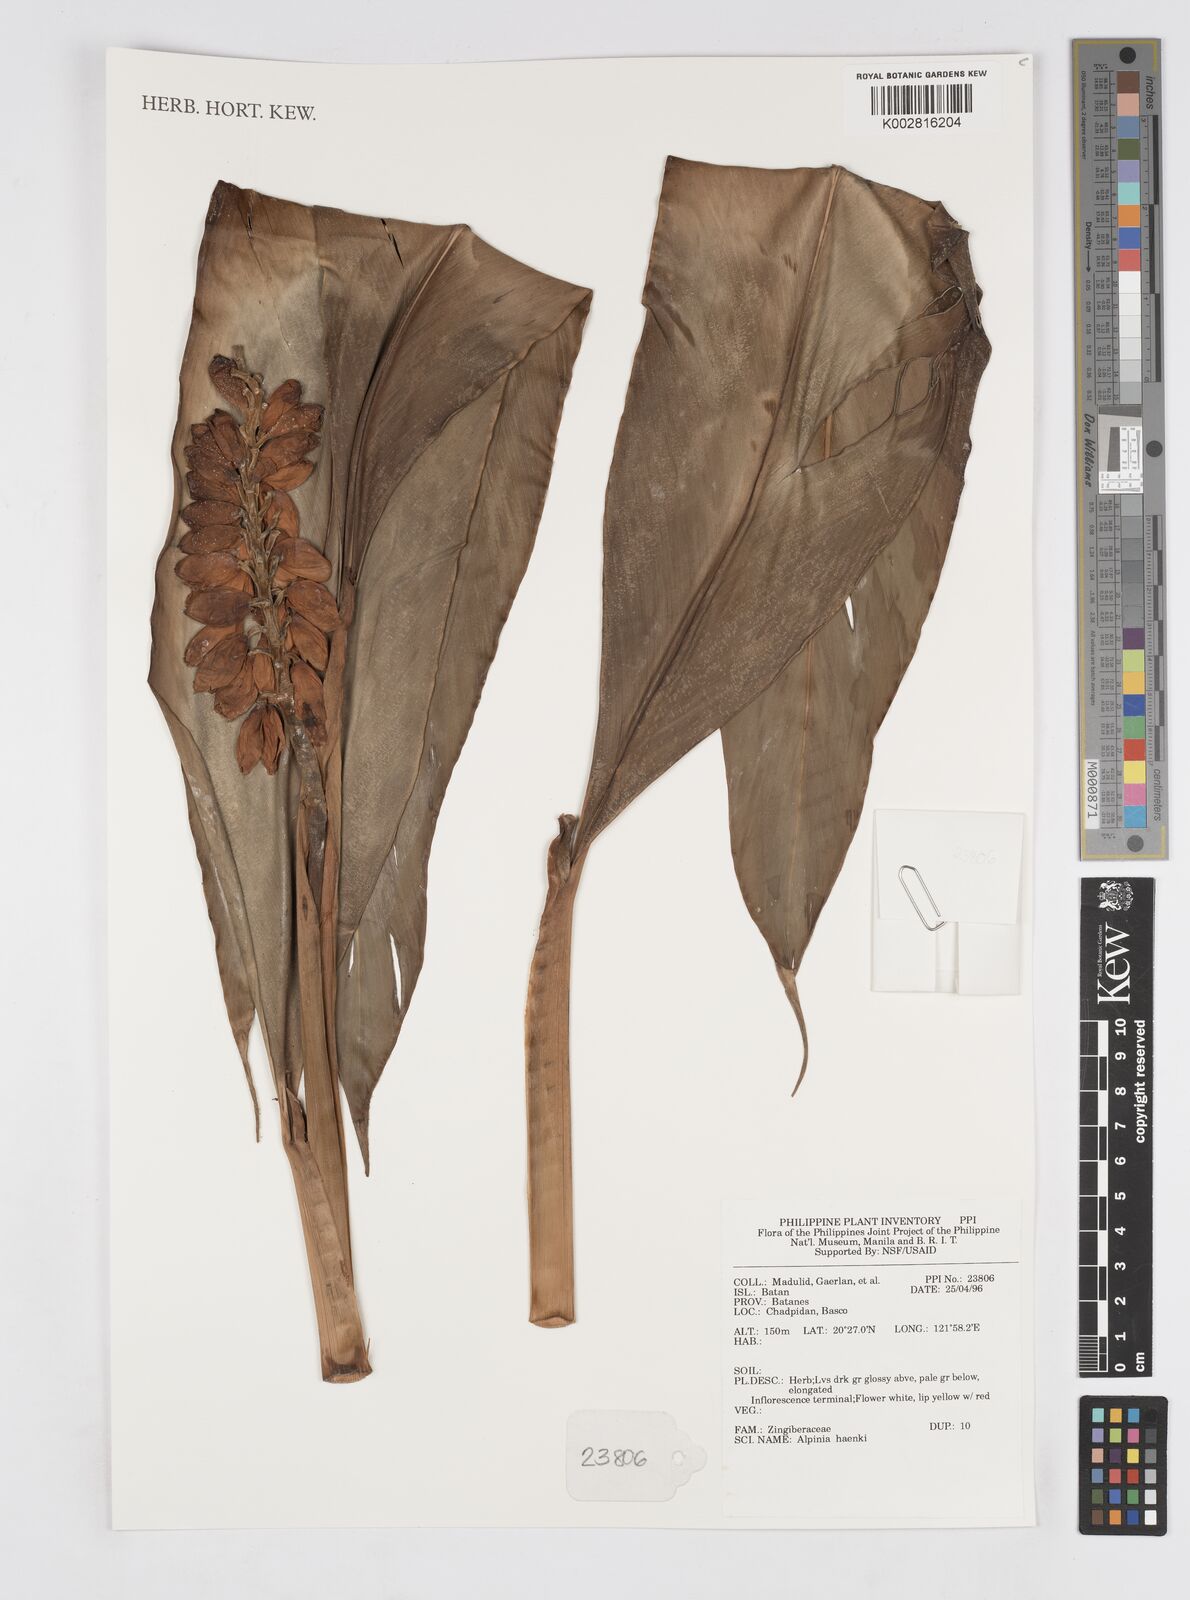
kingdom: Plantae
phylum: Tracheophyta
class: Liliopsida
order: Zingiberales
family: Zingiberaceae
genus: Alpinia
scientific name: Alpinia haenkei
